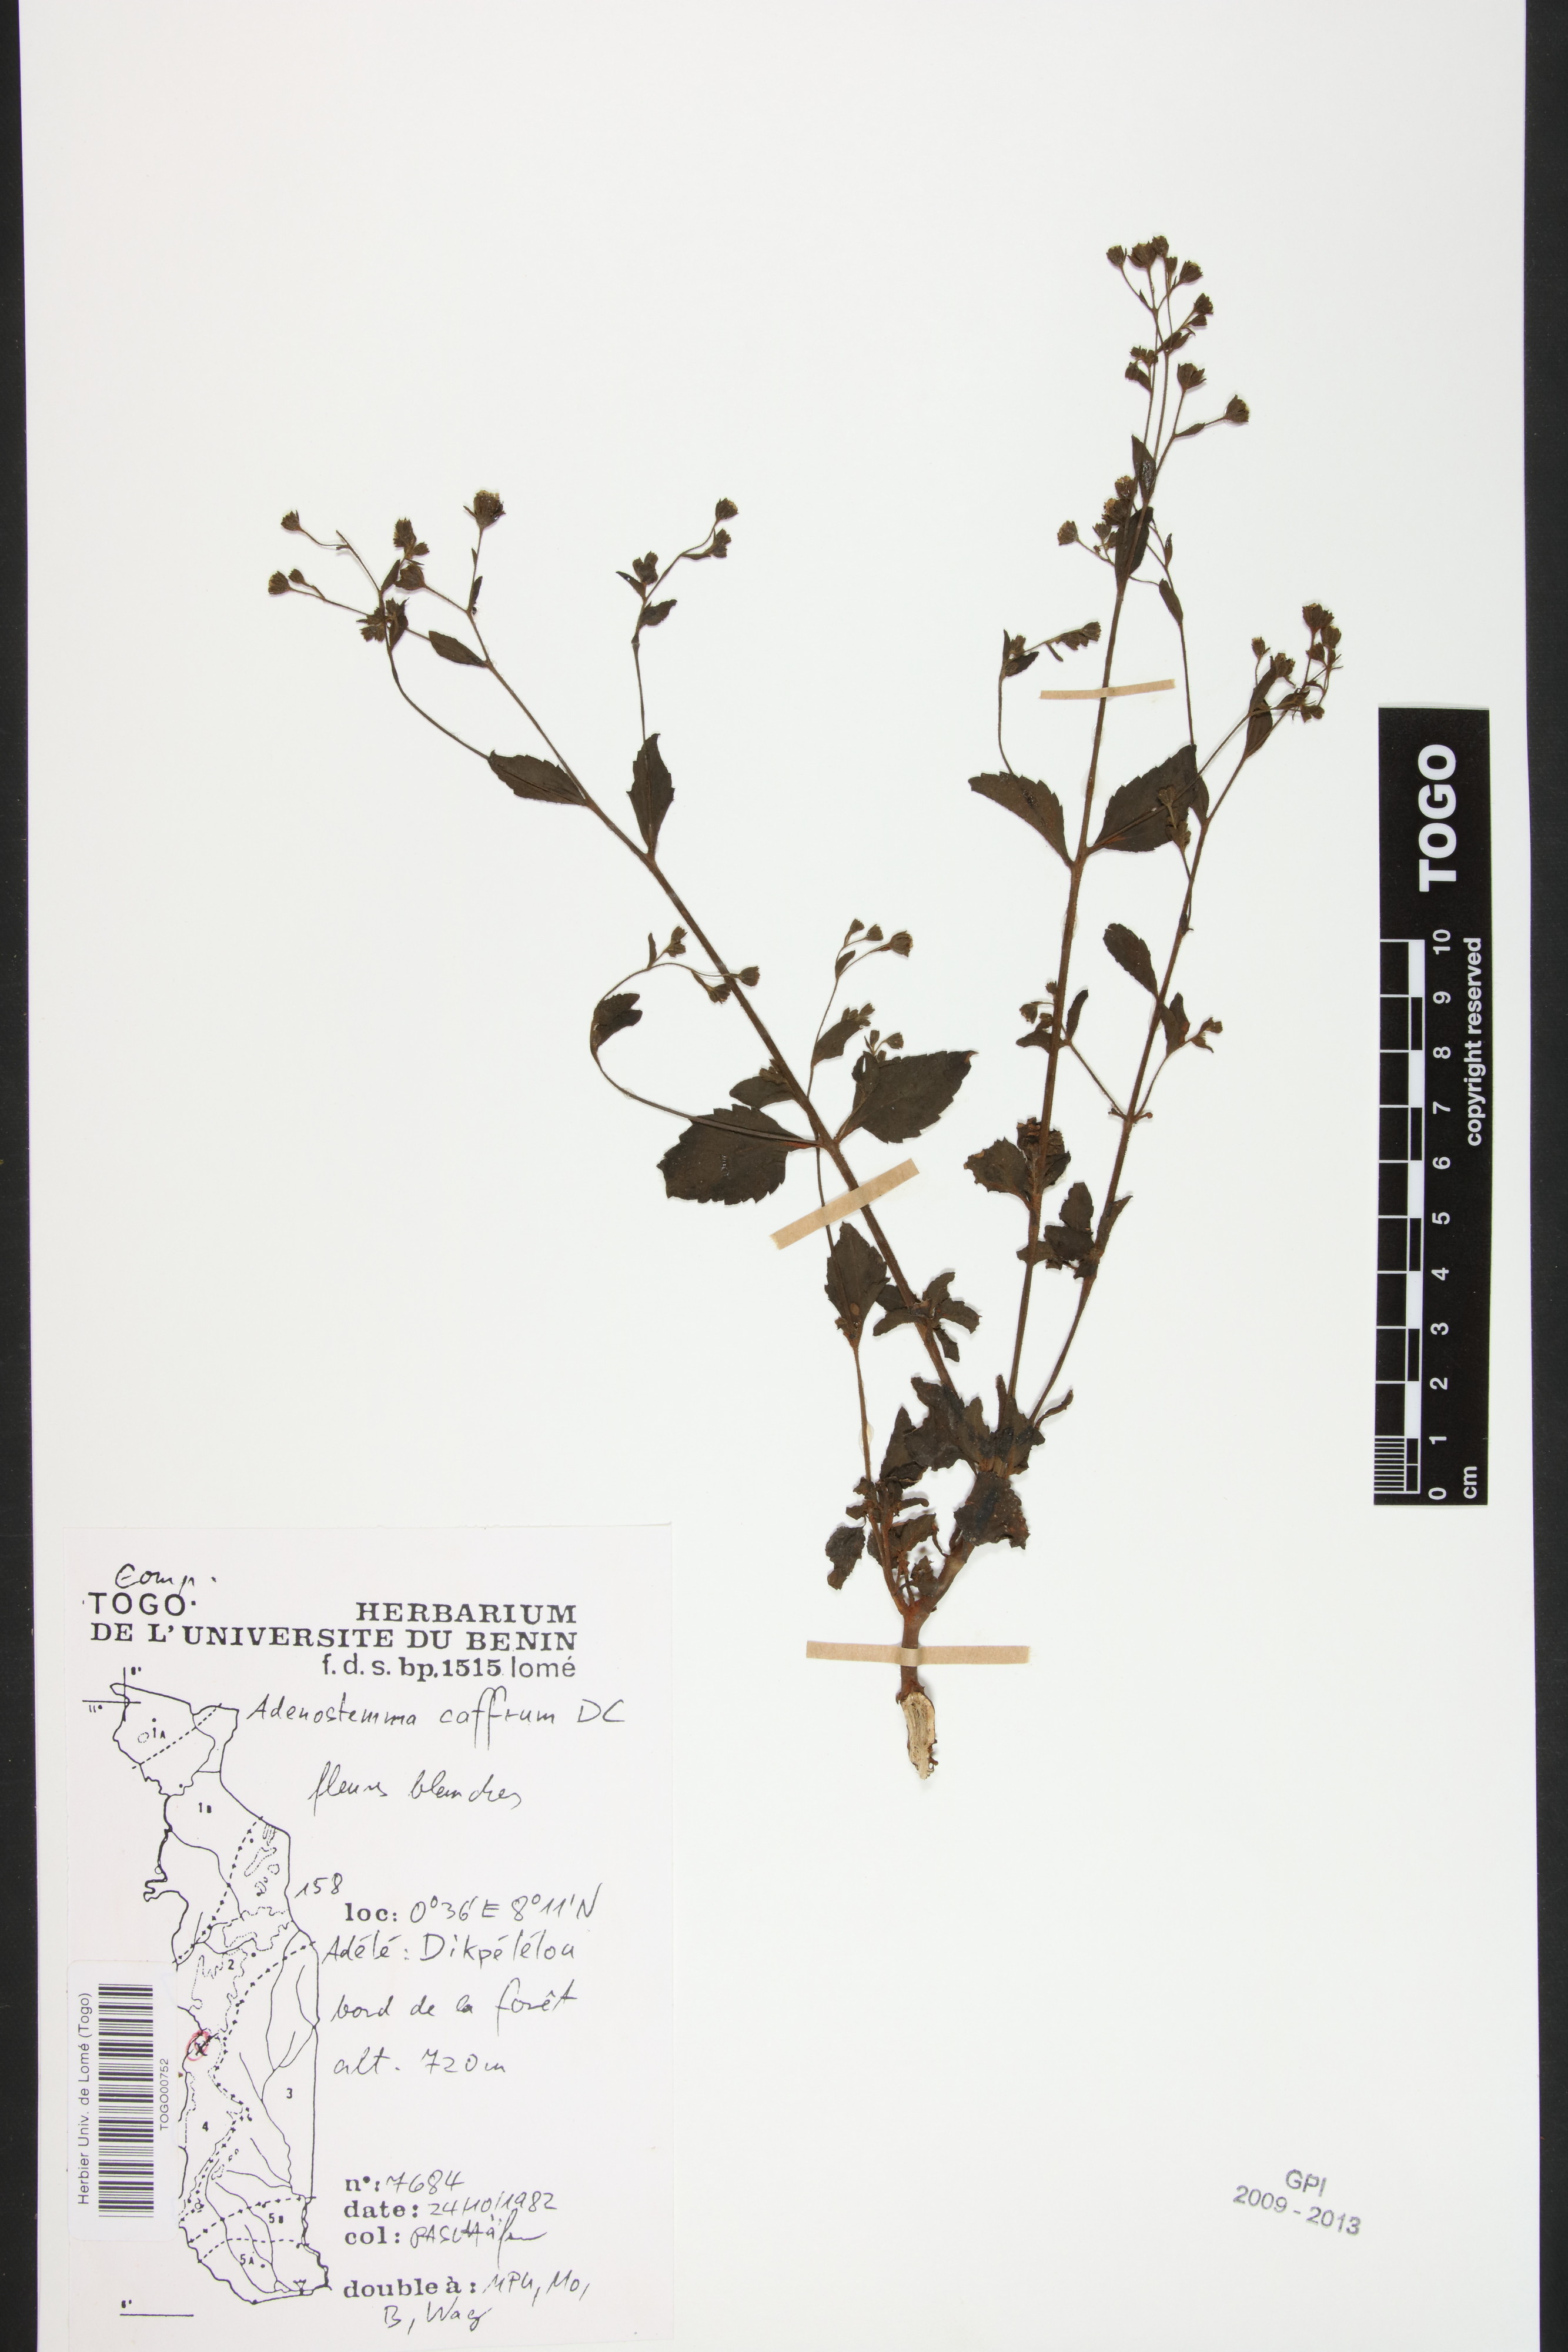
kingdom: Plantae
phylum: Tracheophyta
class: Magnoliopsida
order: Asterales
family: Asteraceae
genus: Adenostemma
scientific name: Adenostemma caffrum
